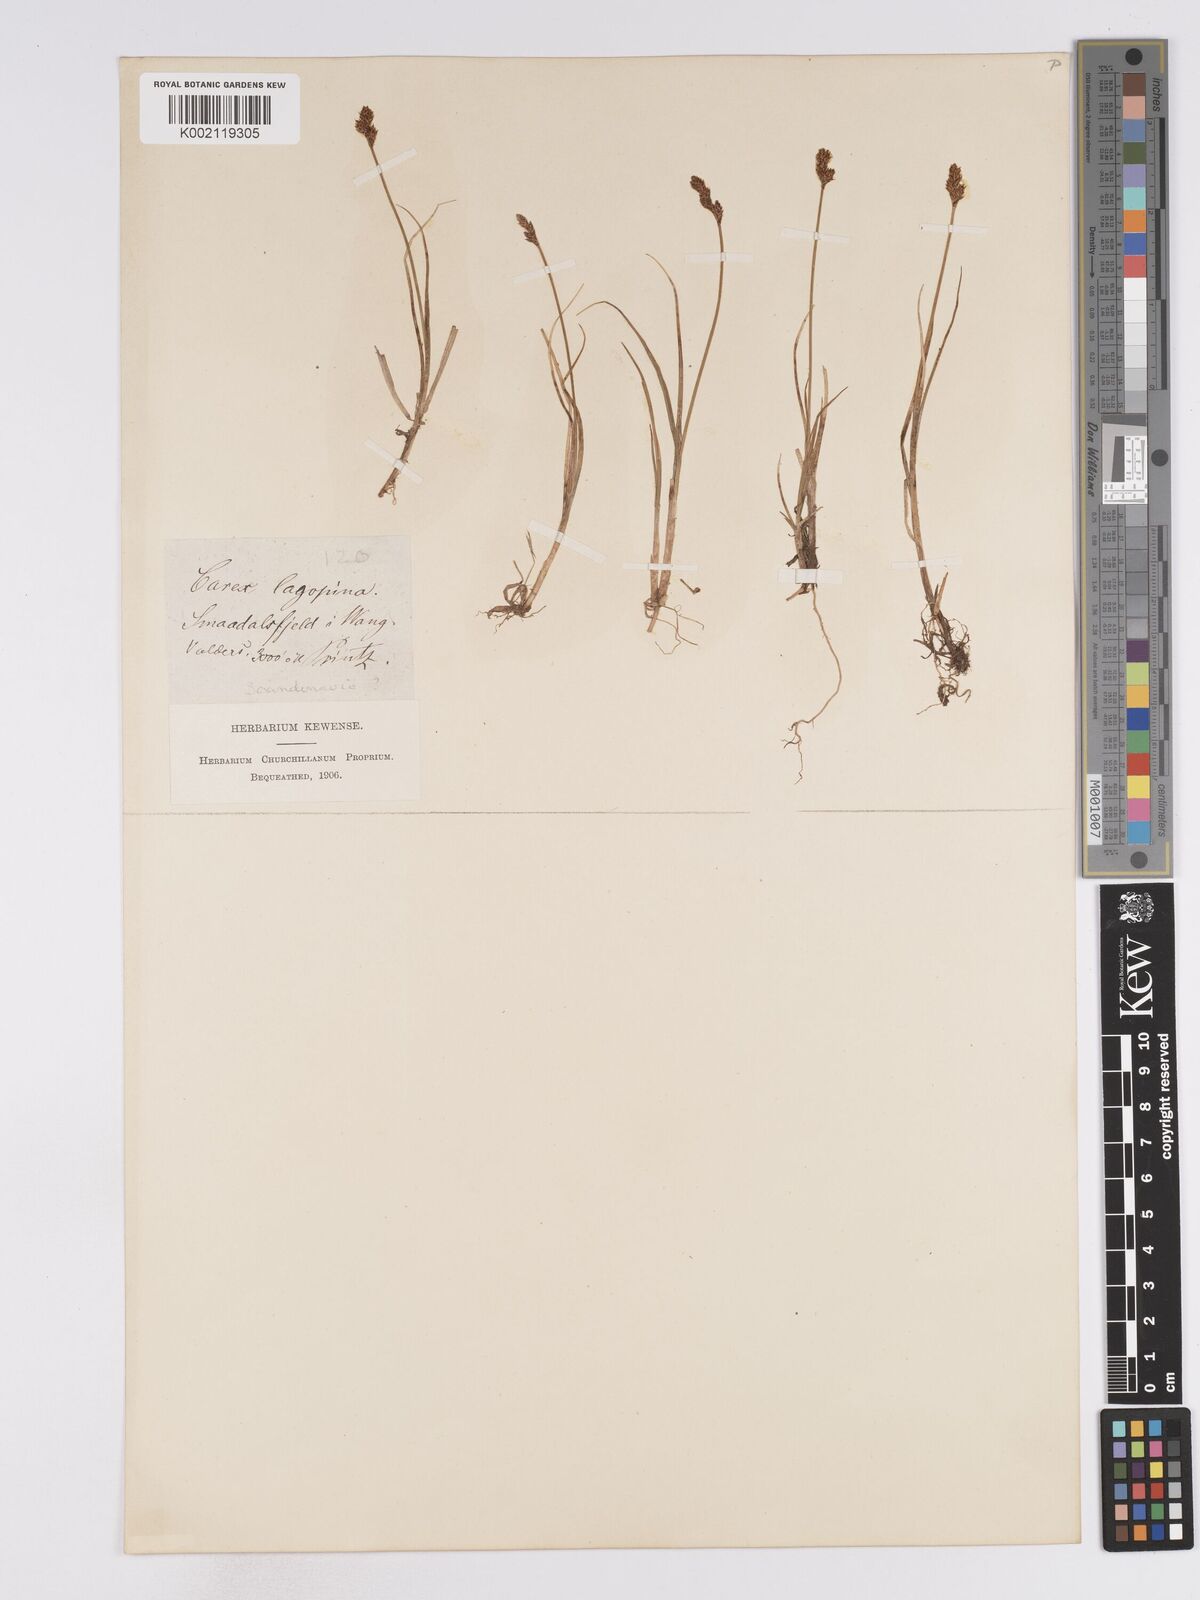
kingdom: Plantae
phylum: Tracheophyta
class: Liliopsida
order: Poales
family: Cyperaceae
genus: Carex
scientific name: Carex lachenalii
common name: Hare's-foot sedge
